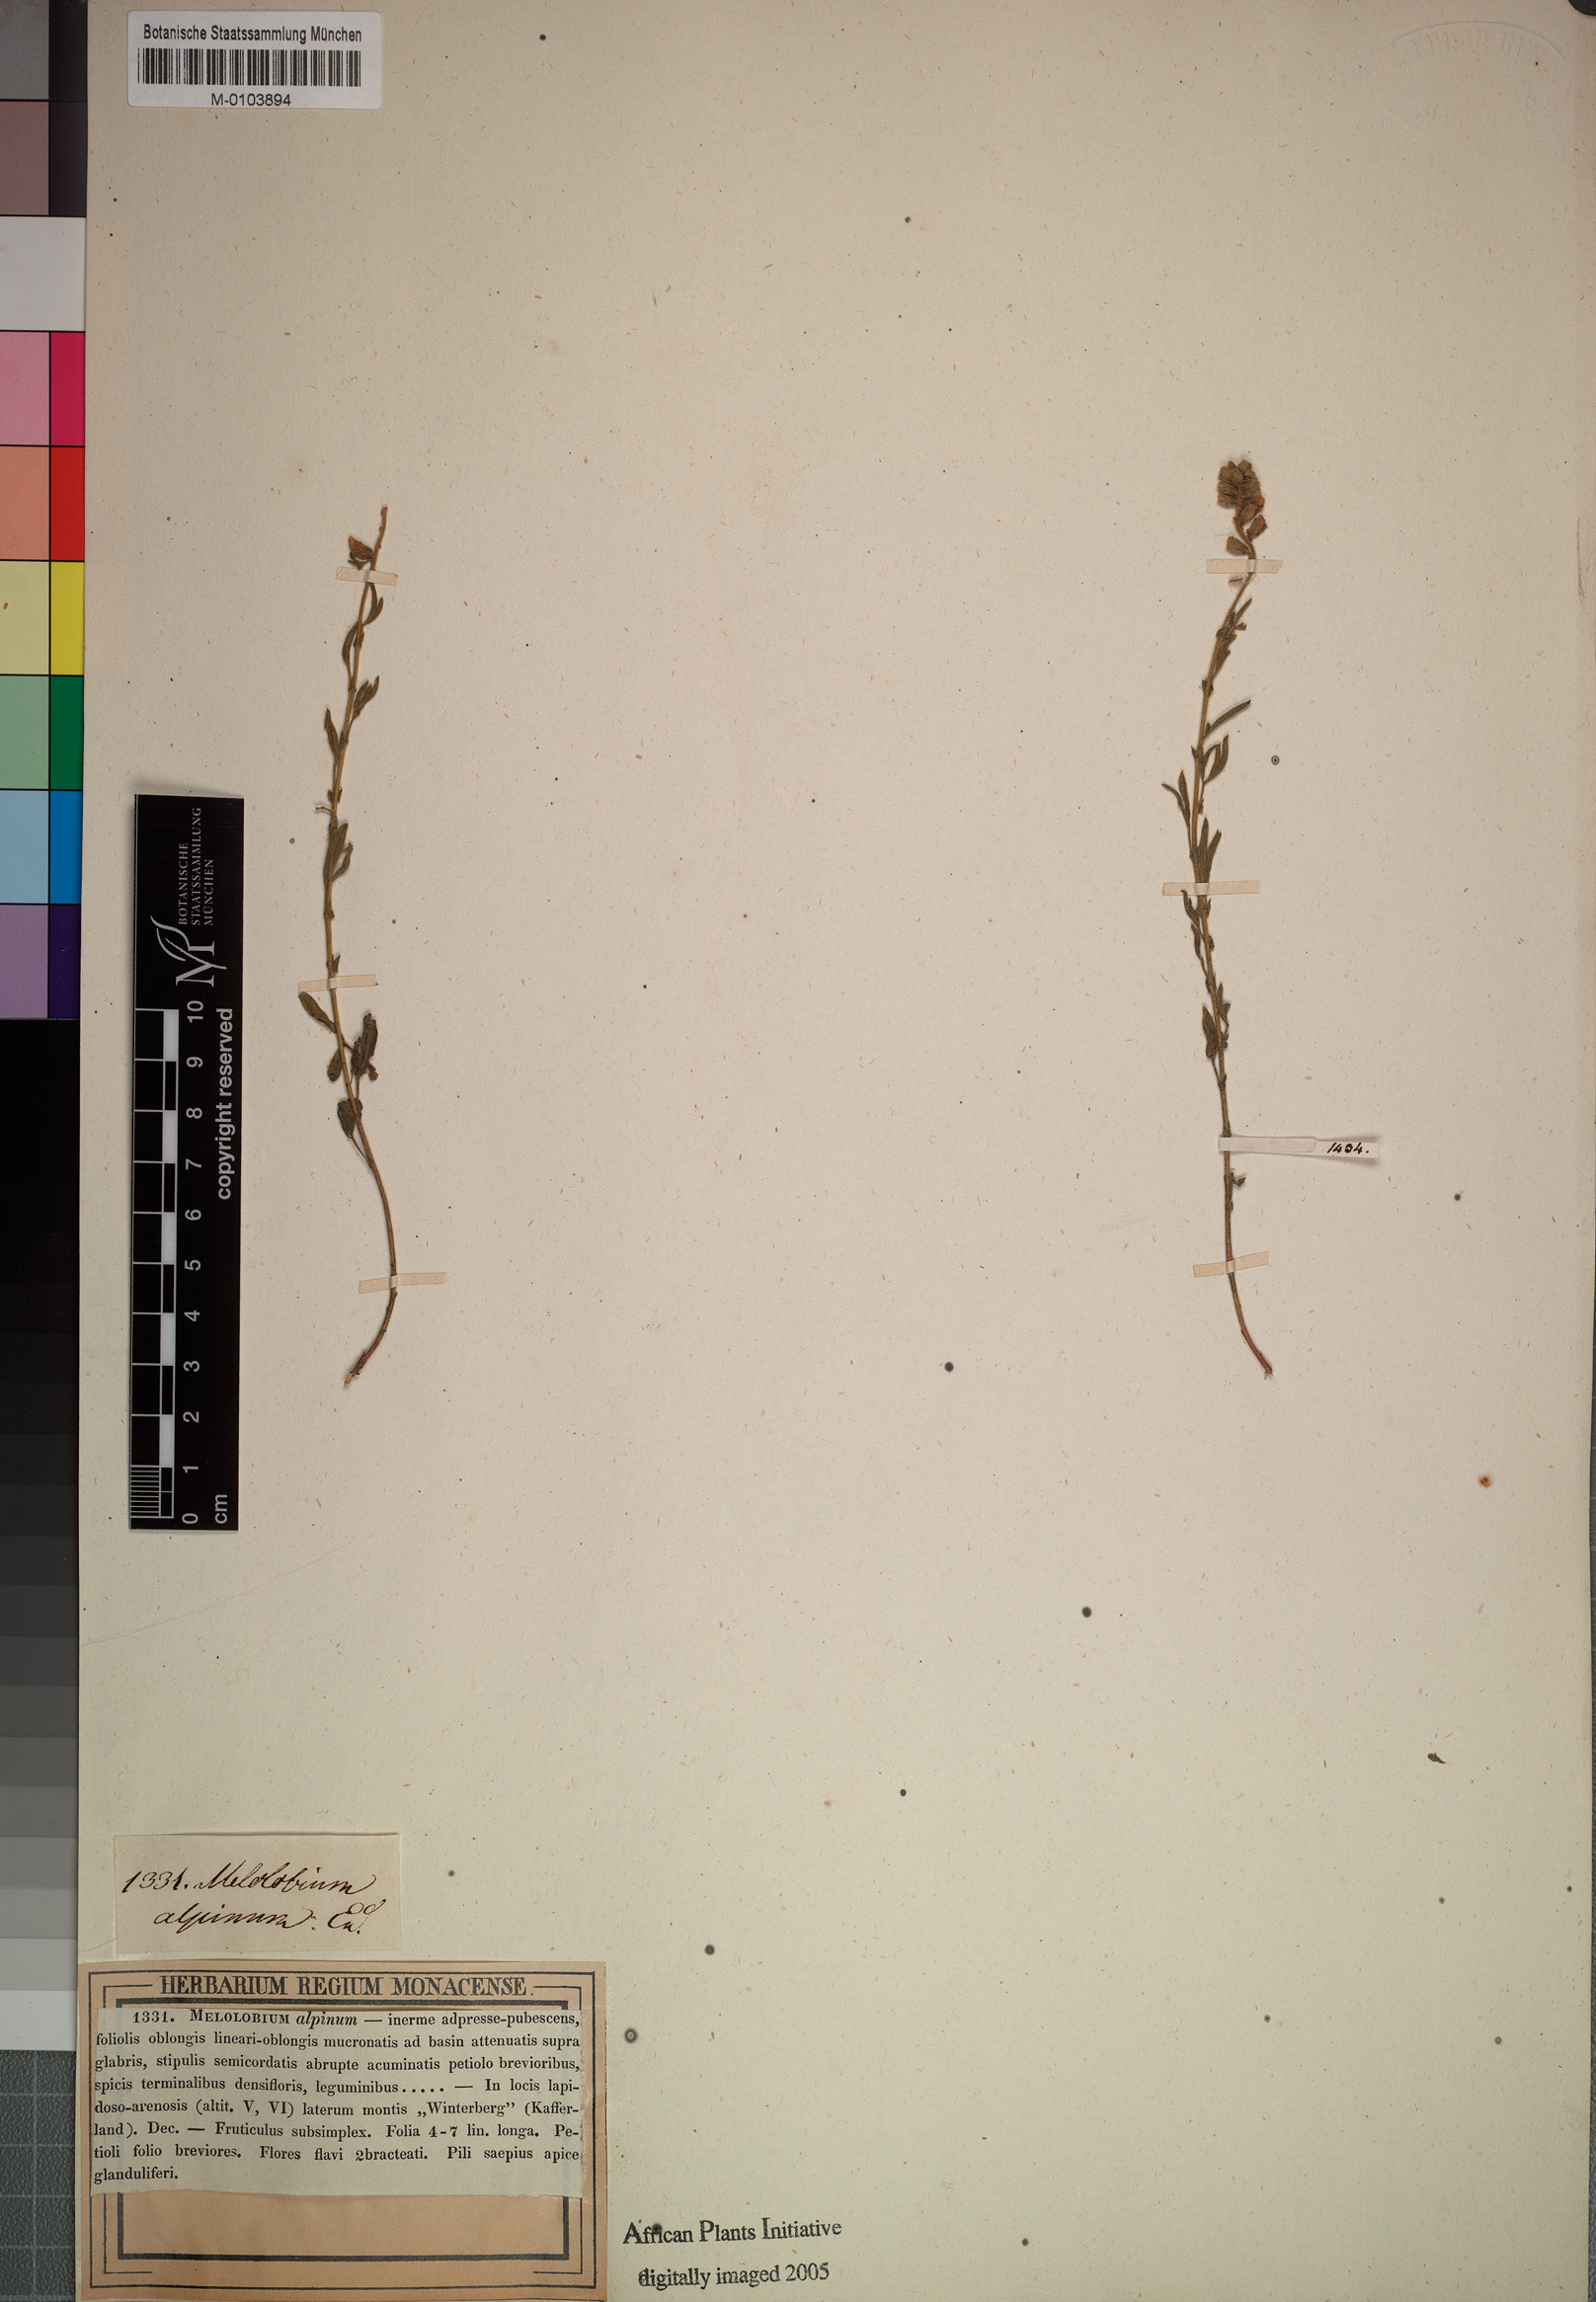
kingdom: Plantae
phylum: Tracheophyta
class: Magnoliopsida
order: Fabales
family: Fabaceae
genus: Melolobium
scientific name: Melolobium alpinum
